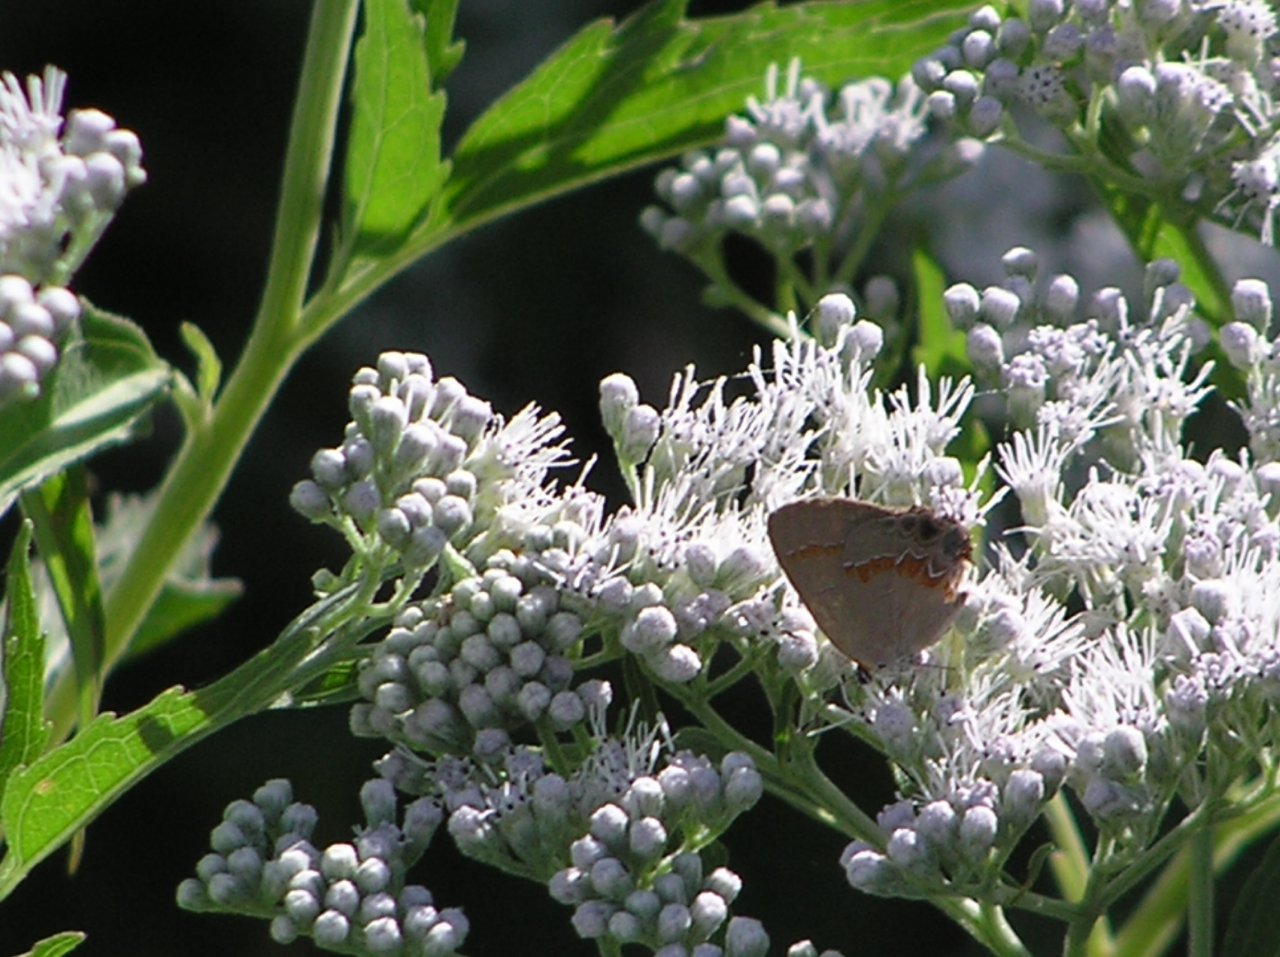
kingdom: Animalia
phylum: Arthropoda
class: Insecta
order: Lepidoptera
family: Lycaenidae
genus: Calycopis
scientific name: Calycopis cecrops
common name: Red-banded Hairstreak
